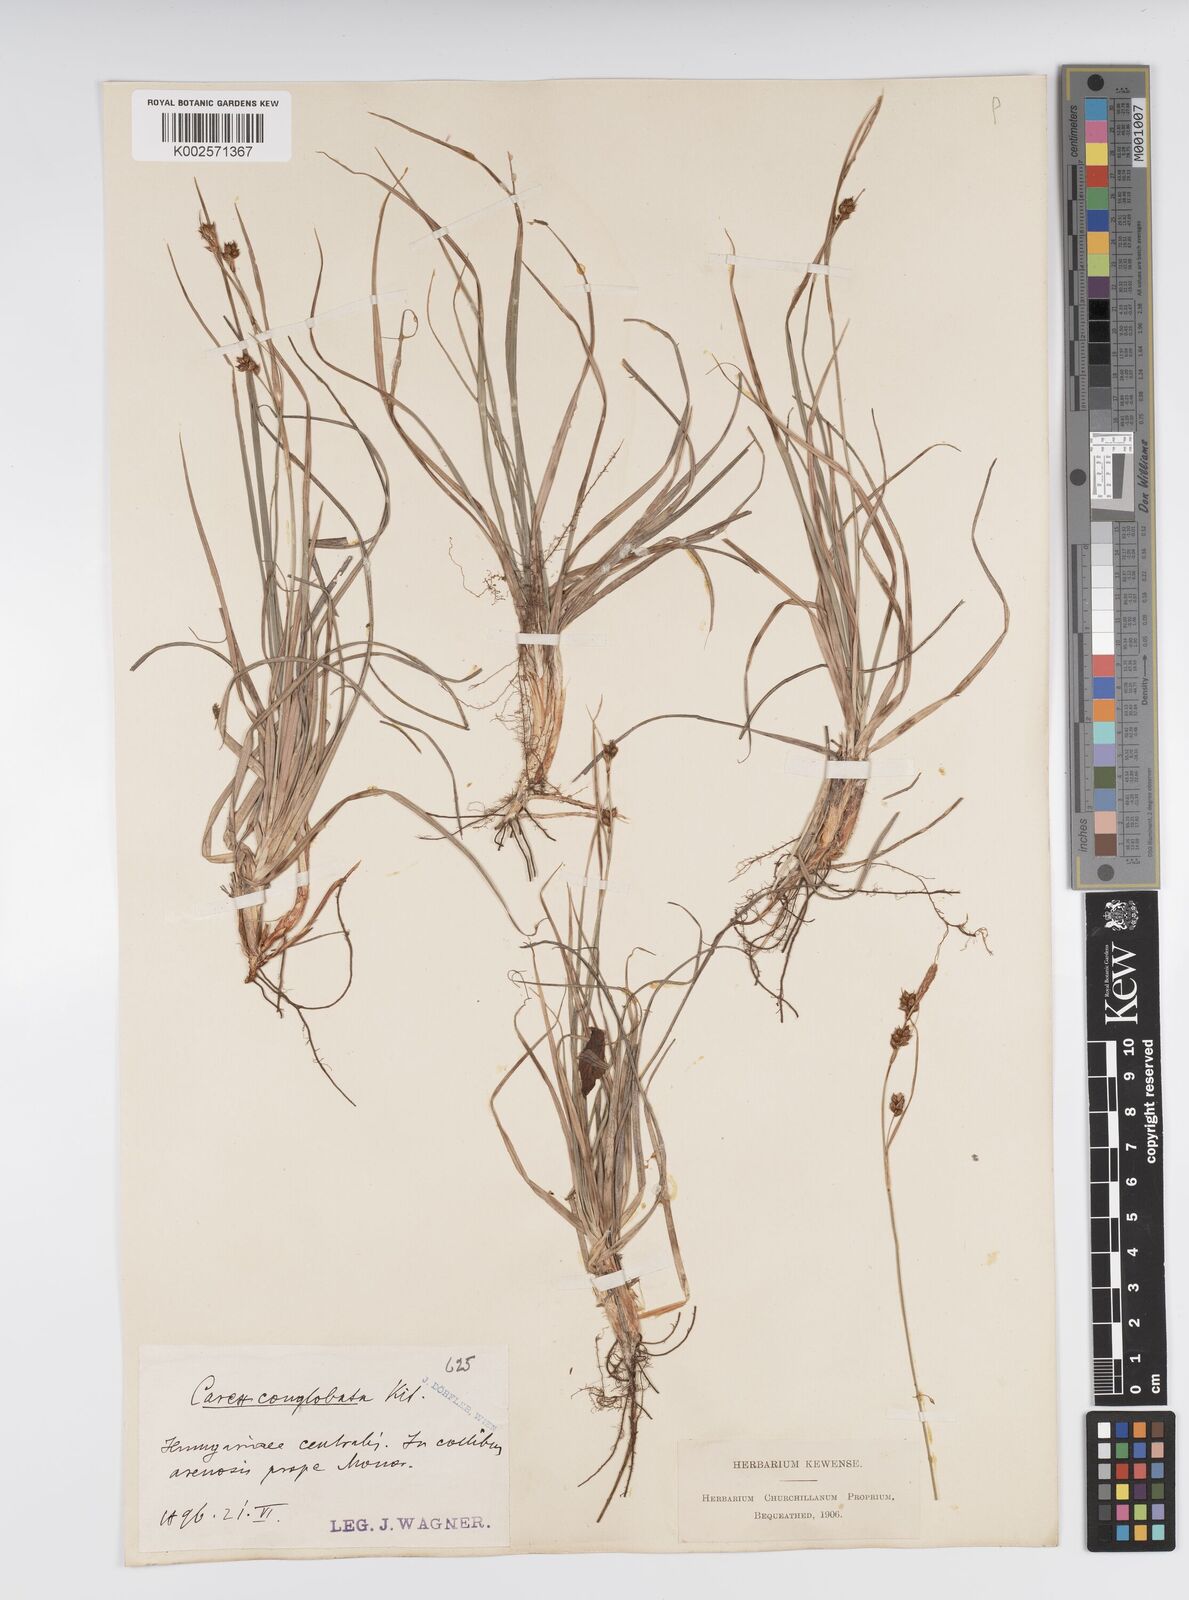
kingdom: Plantae
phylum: Tracheophyta
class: Liliopsida
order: Poales
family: Cyperaceae
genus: Carex
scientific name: Carex liparocarpos
